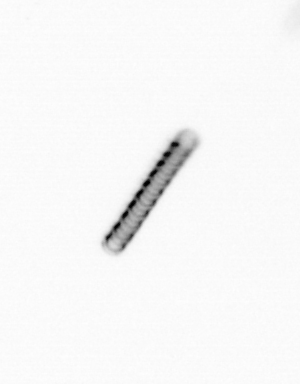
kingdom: Chromista
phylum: Ochrophyta
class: Bacillariophyceae
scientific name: Bacillariophyceae
